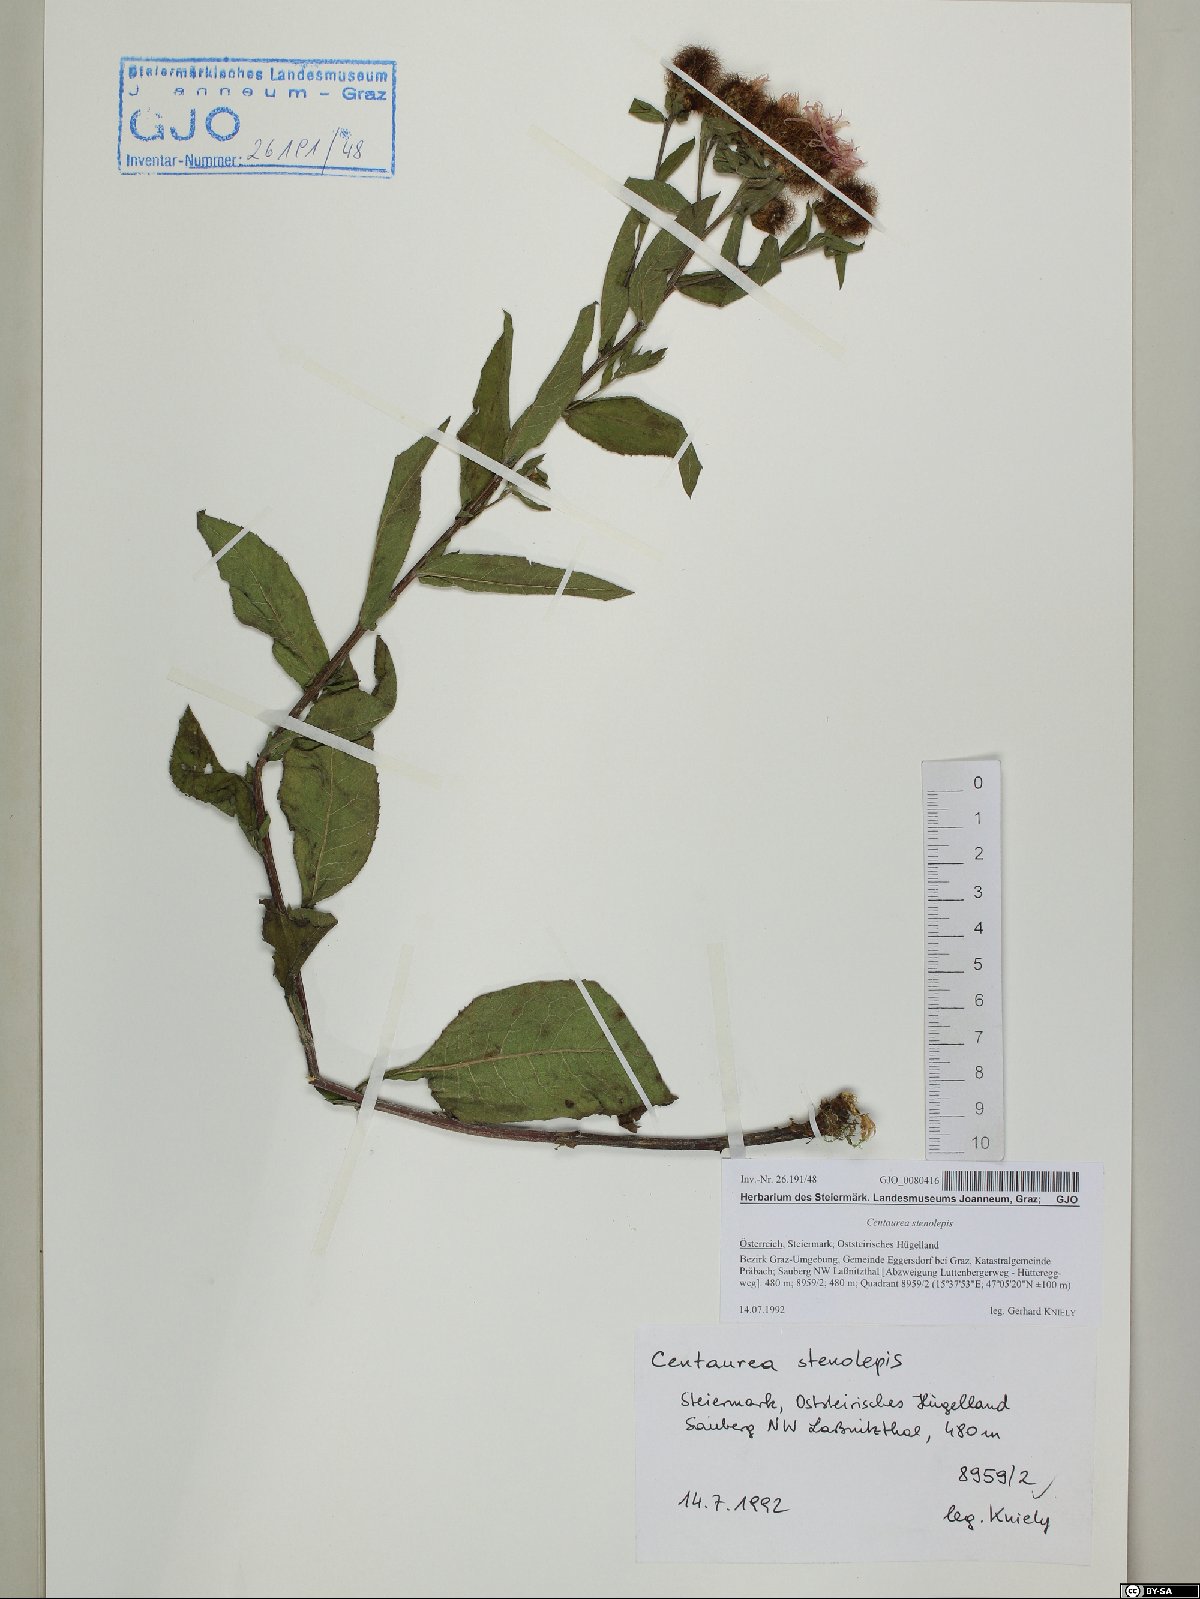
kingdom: Plantae
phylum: Tracheophyta
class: Magnoliopsida
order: Asterales
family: Asteraceae
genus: Centaurea
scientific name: Centaurea stenolepis
